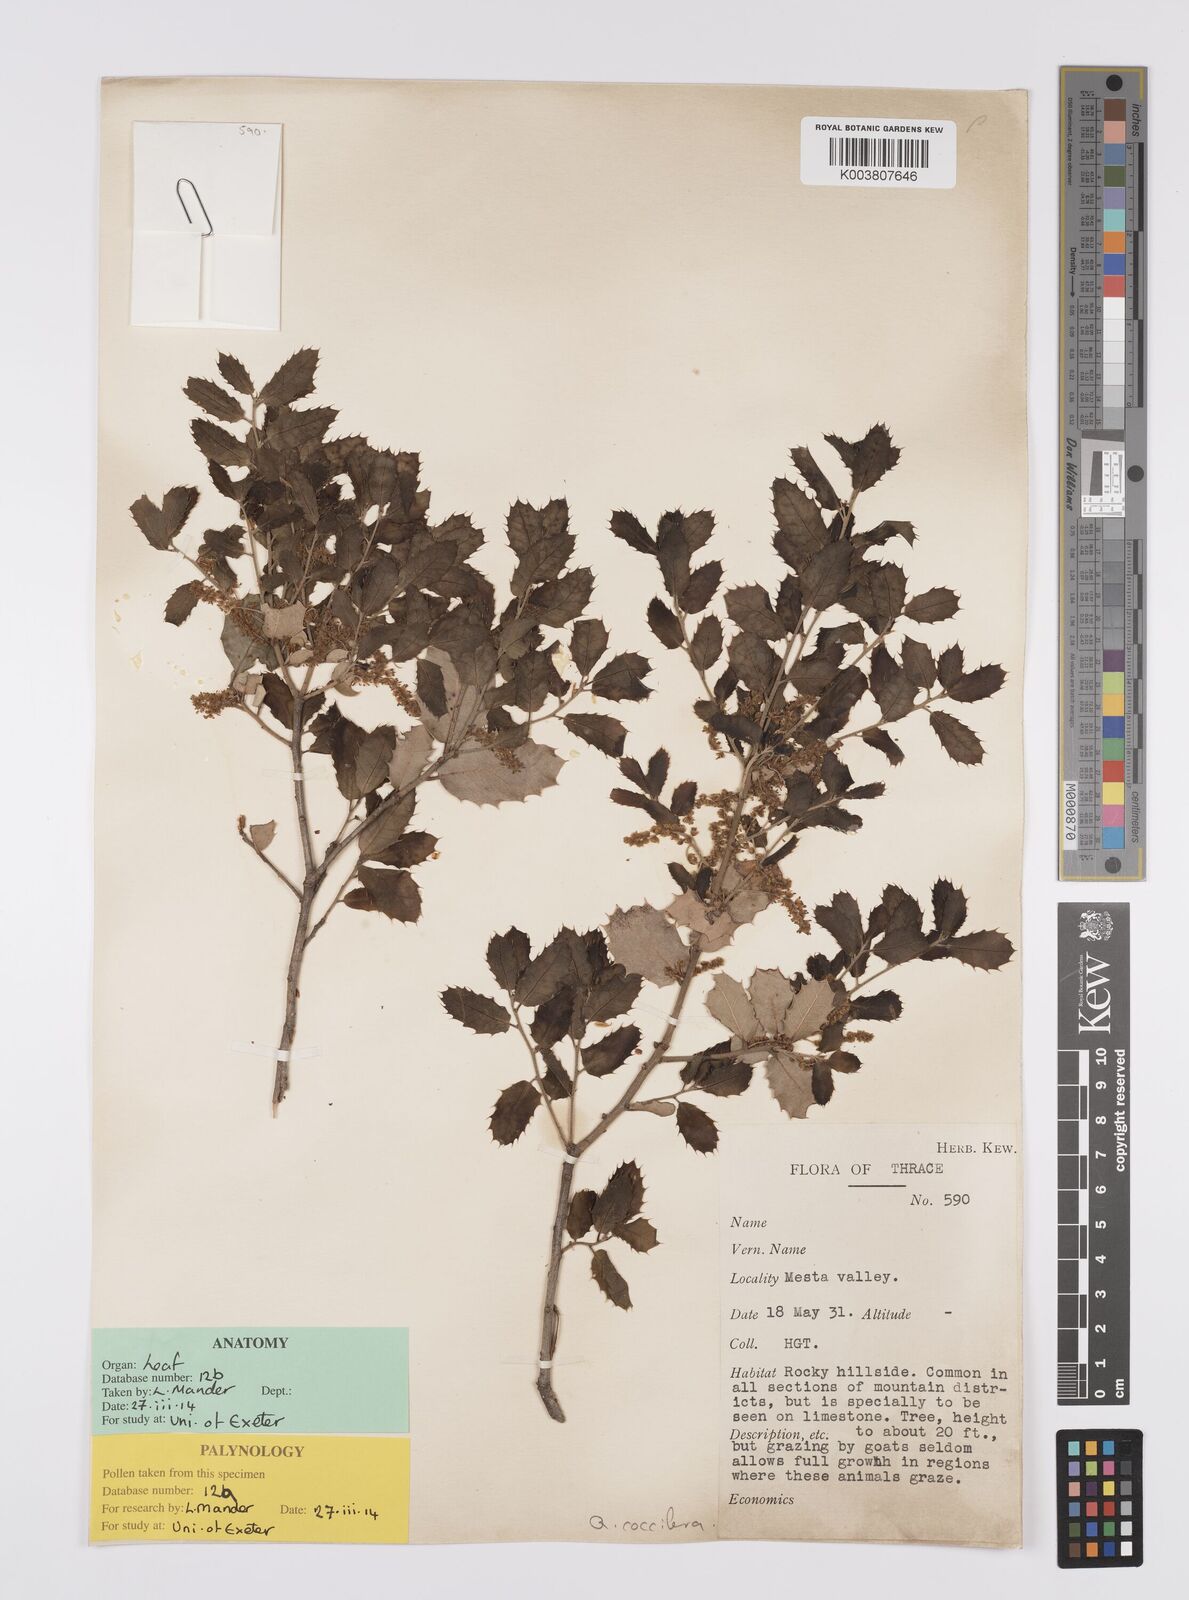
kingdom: Plantae
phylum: Tracheophyta
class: Magnoliopsida
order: Fagales
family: Fagaceae
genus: Quercus
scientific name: Quercus coccifera
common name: Kermes oak
